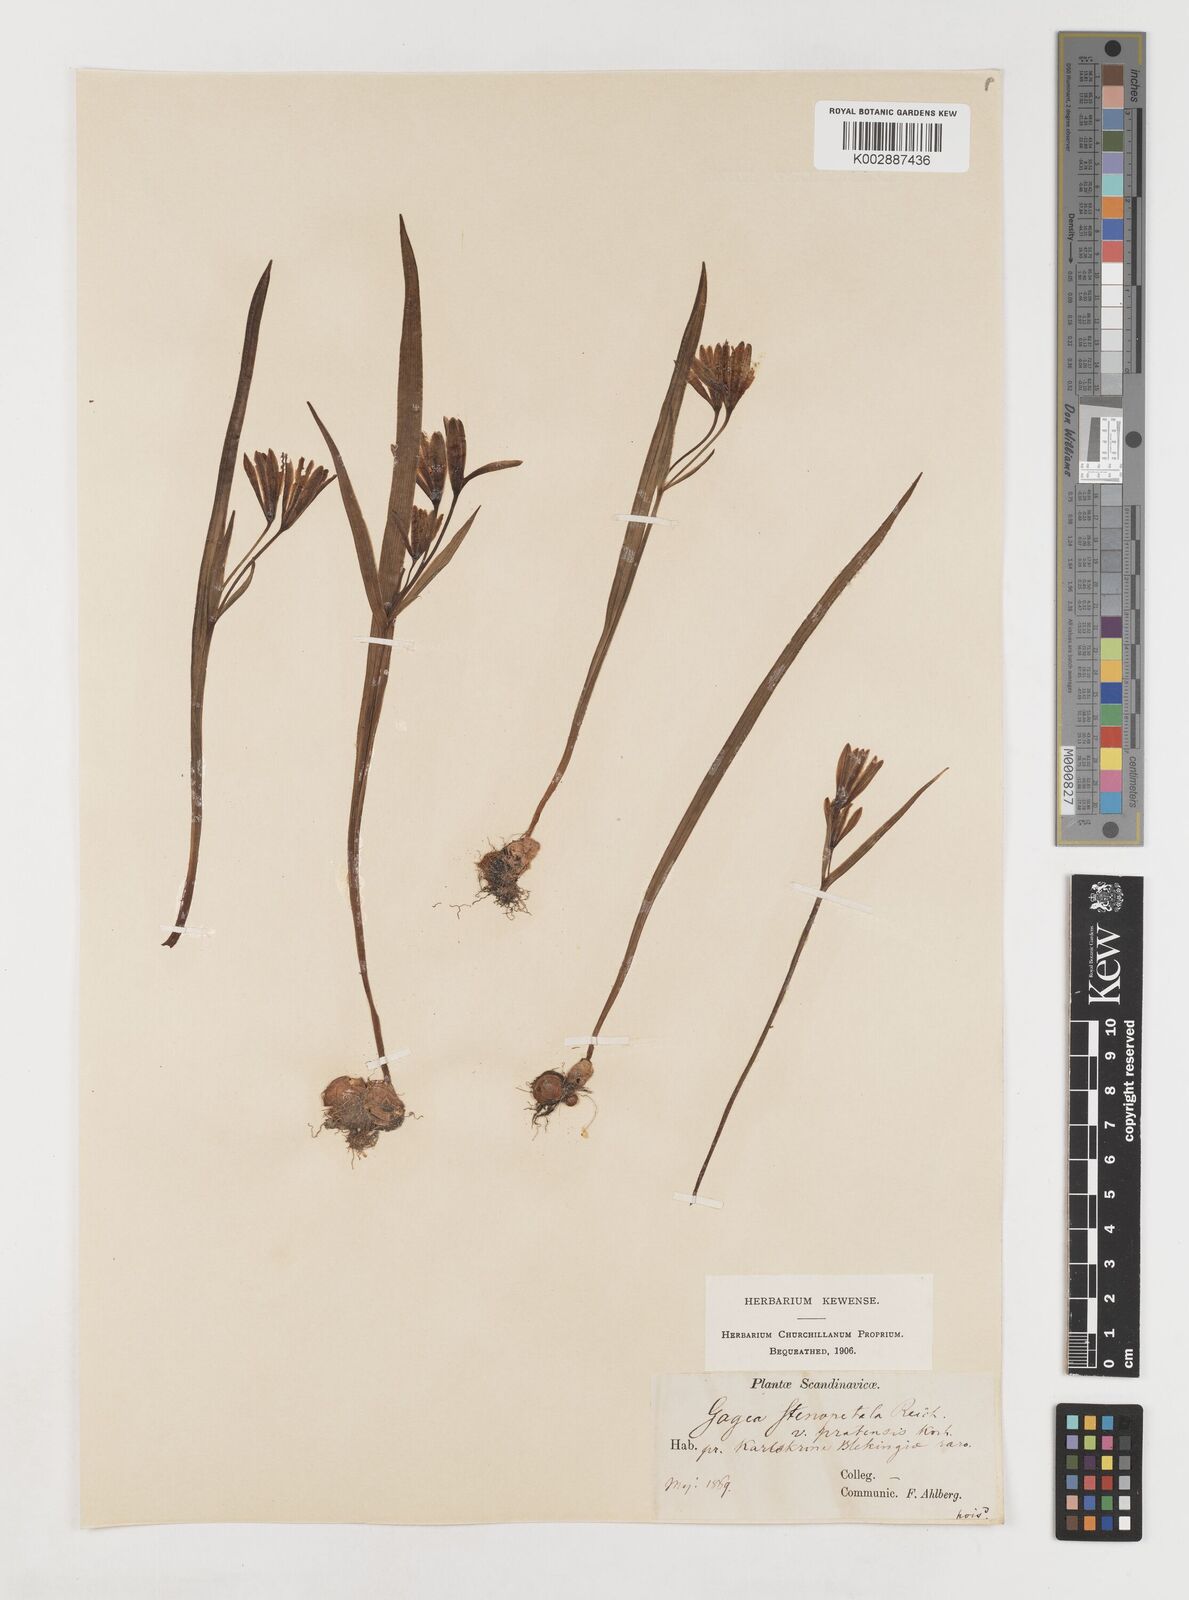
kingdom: Plantae
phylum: Tracheophyta
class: Liliopsida
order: Liliales
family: Liliaceae
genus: Gagea
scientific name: Gagea pratensis
